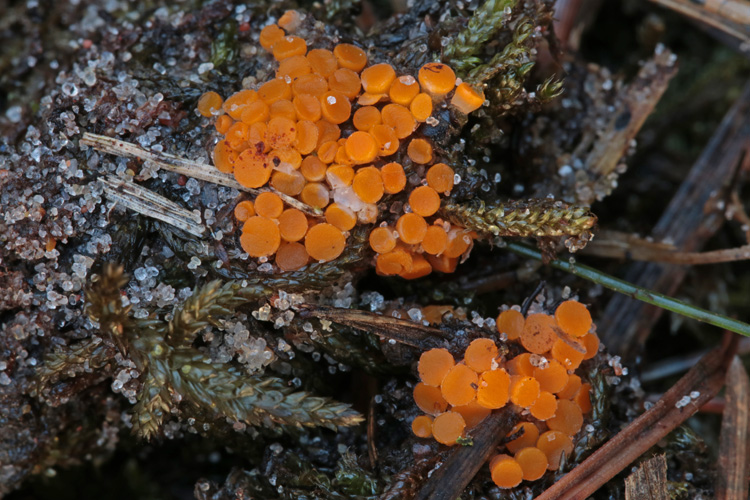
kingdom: Fungi
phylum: Ascomycota
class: Pezizomycetes
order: Pezizales
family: Pyronemataceae
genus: Byssonectria
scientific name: Byssonectria terrestris
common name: hjortebæger
